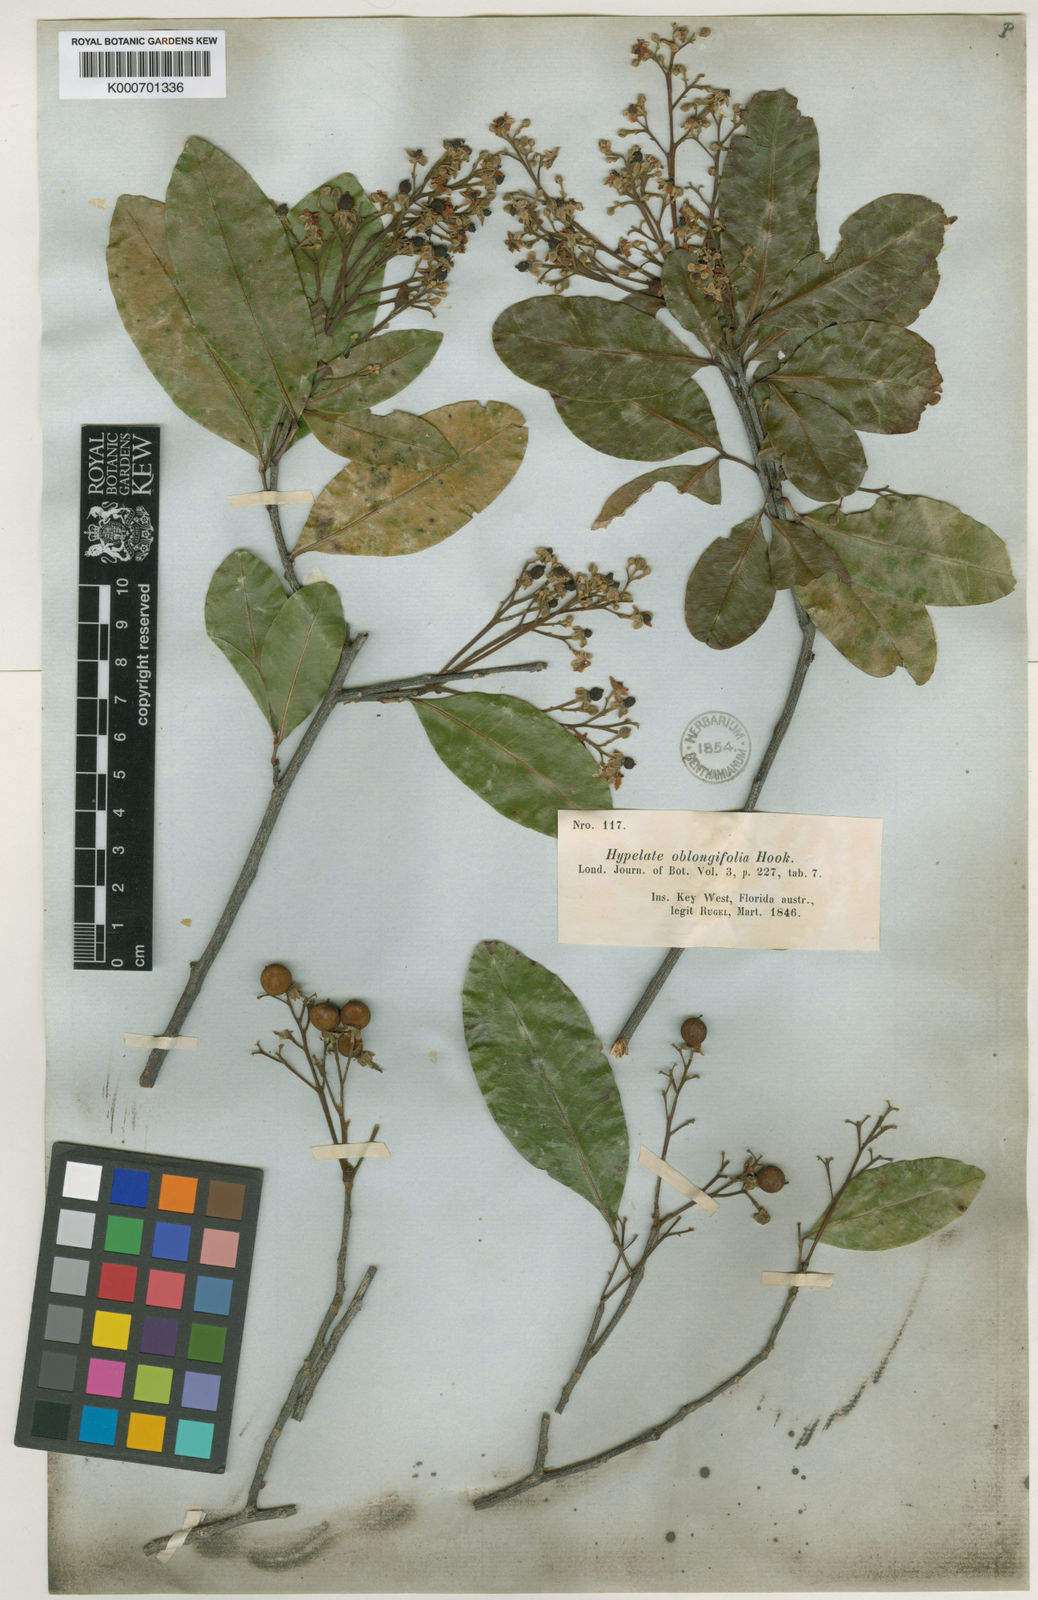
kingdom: Plantae
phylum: Tracheophyta
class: Magnoliopsida
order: Sapindales
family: Sapindaceae
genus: Exothea
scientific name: Exothea paniculata
